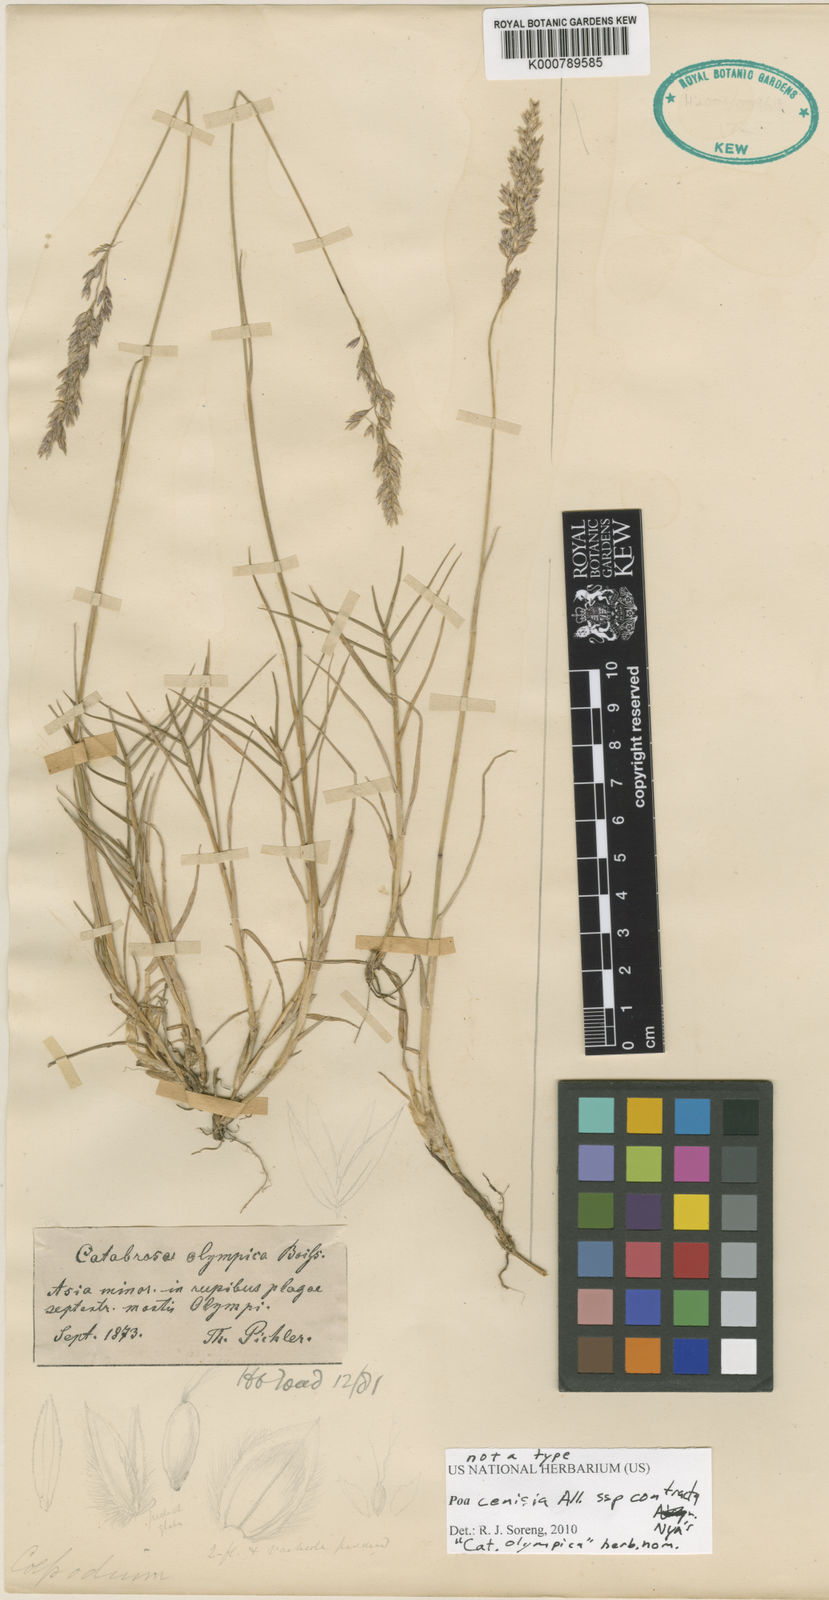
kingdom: Plantae
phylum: Tracheophyta
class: Liliopsida
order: Poales
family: Poaceae
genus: Poa
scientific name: Poa cenisia
